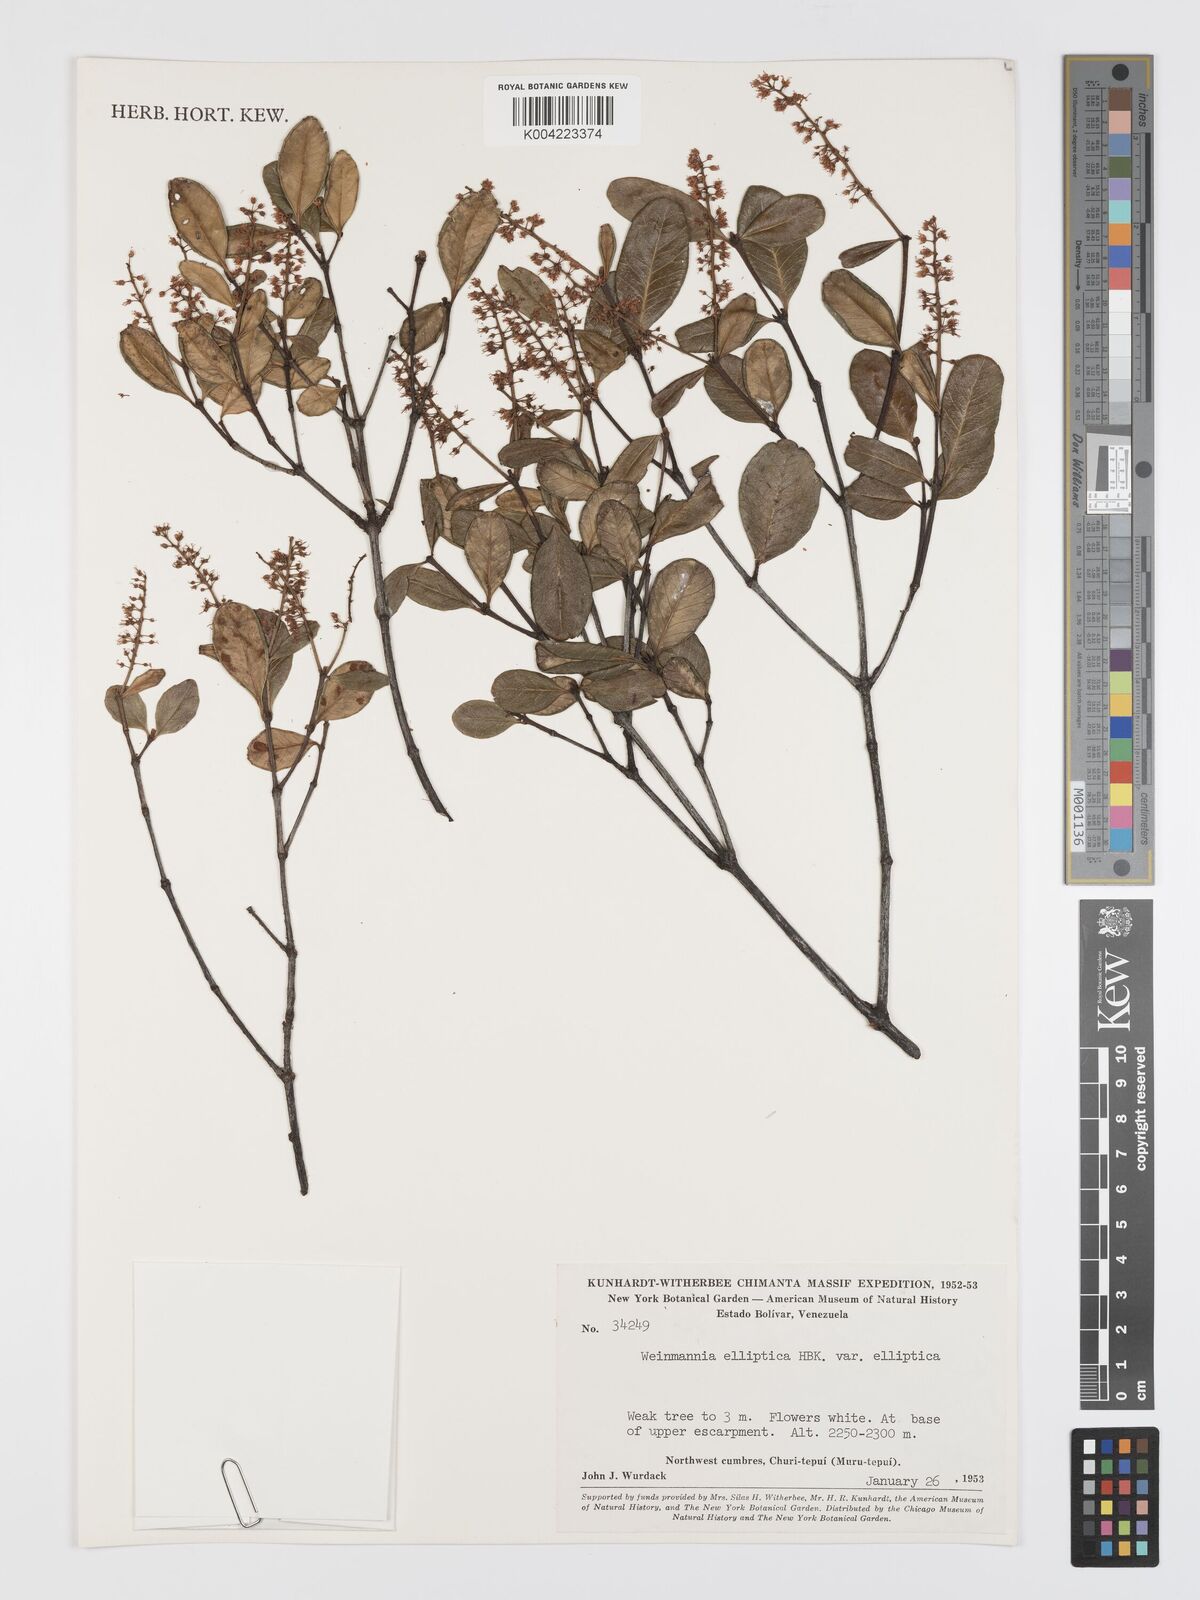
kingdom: Plantae
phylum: Tracheophyta
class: Magnoliopsida
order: Oxalidales
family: Cunoniaceae
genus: Weinmannia
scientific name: Weinmannia elliptica
